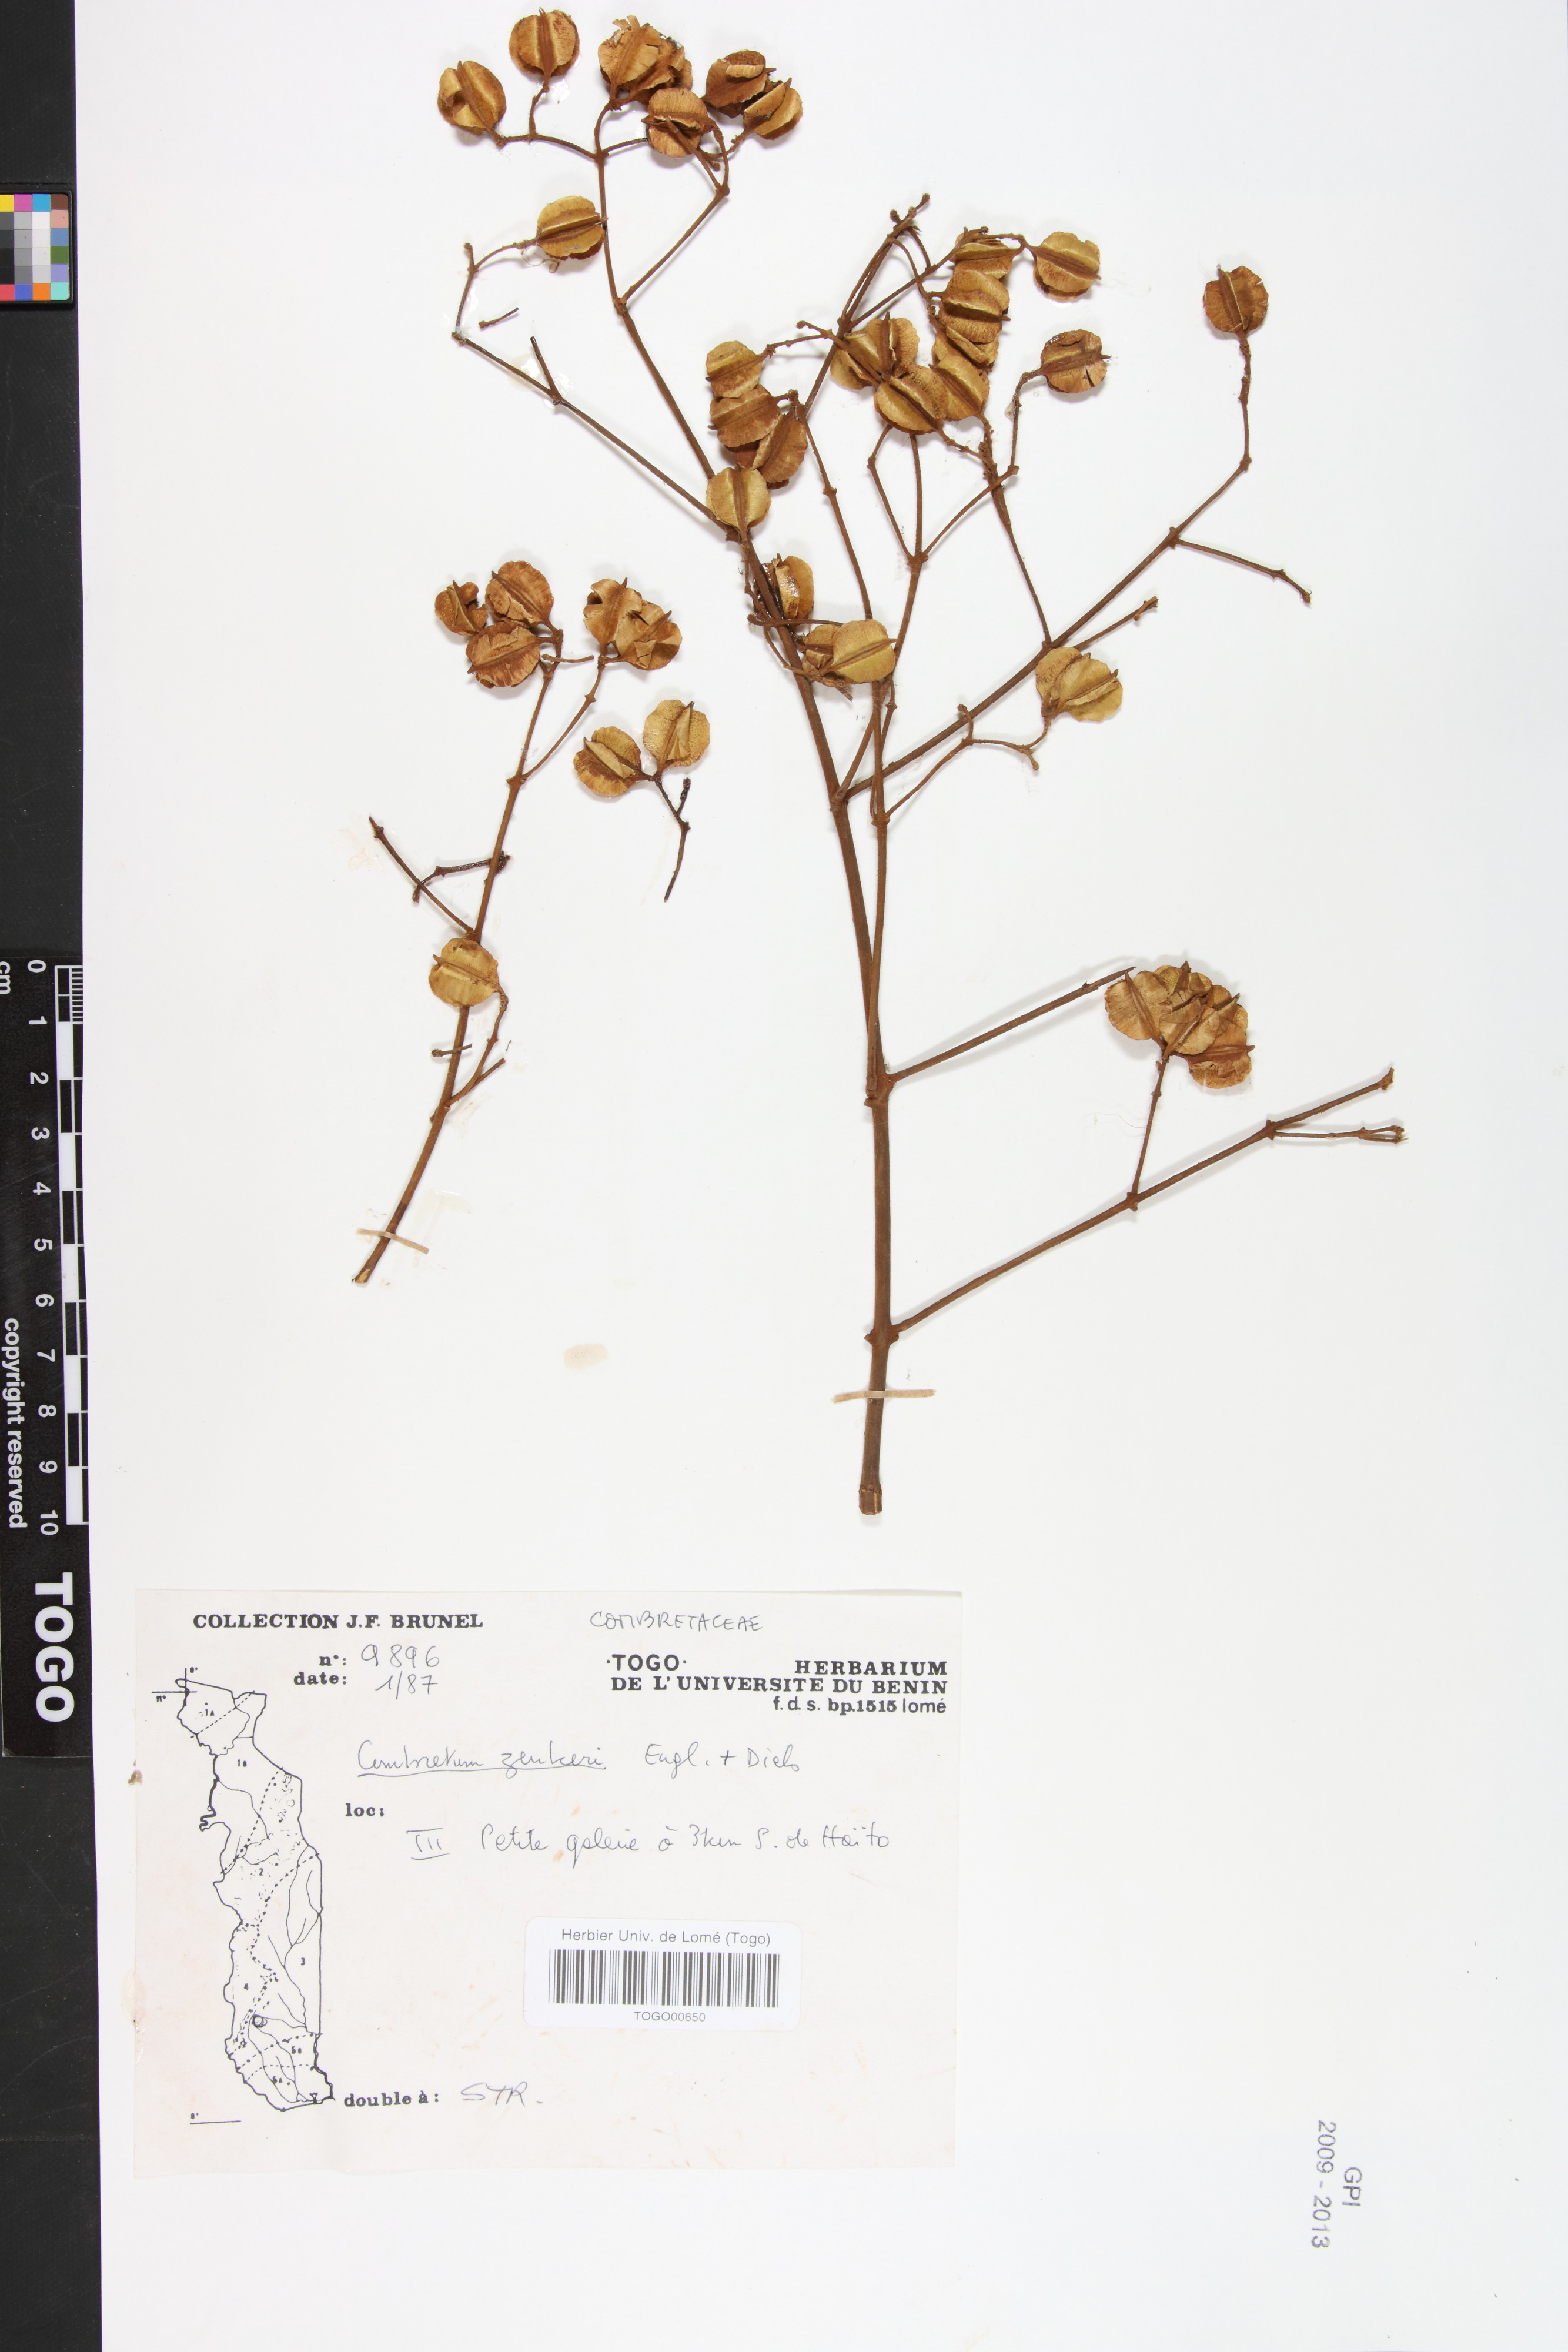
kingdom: Plantae
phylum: Tracheophyta
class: Magnoliopsida
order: Myrtales
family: Combretaceae
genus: Combretum
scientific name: Combretum zenkeri
